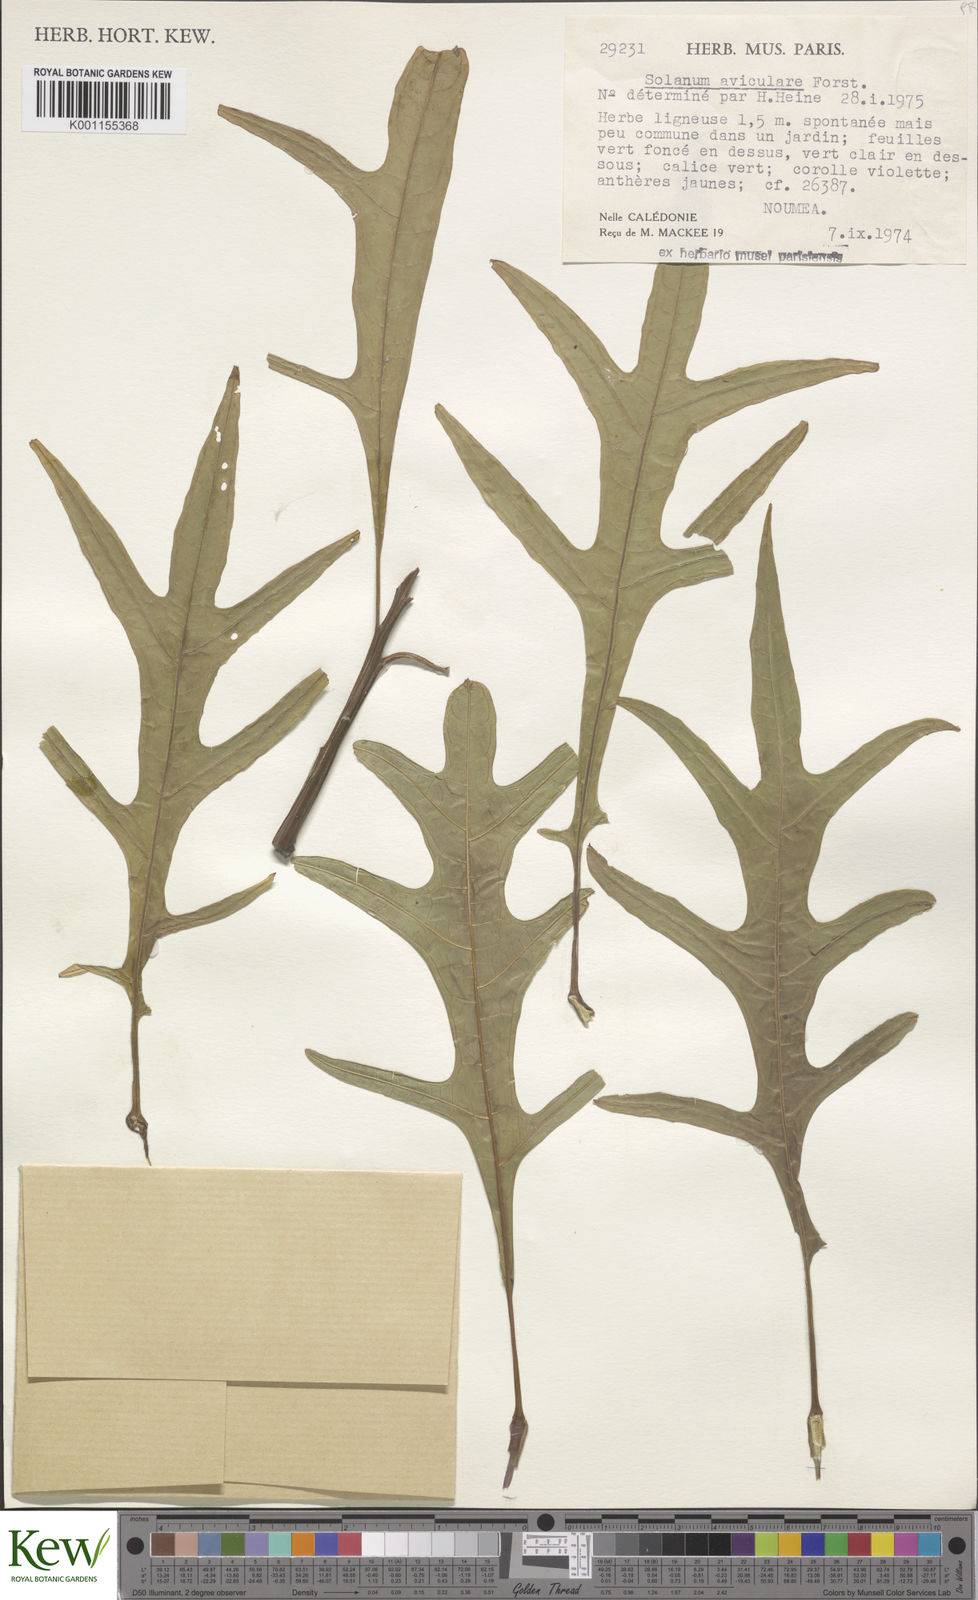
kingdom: Plantae
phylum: Tracheophyta
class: Magnoliopsida
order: Solanales
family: Solanaceae
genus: Solanum
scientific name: Solanum aviculare
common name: New zealand nightshade
